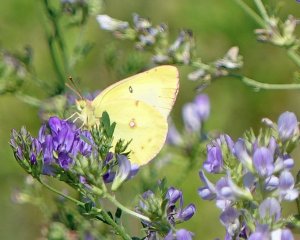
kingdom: Animalia
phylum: Arthropoda
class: Insecta
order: Lepidoptera
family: Pieridae
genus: Colias
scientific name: Colias philodice
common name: Clouded Sulphur
